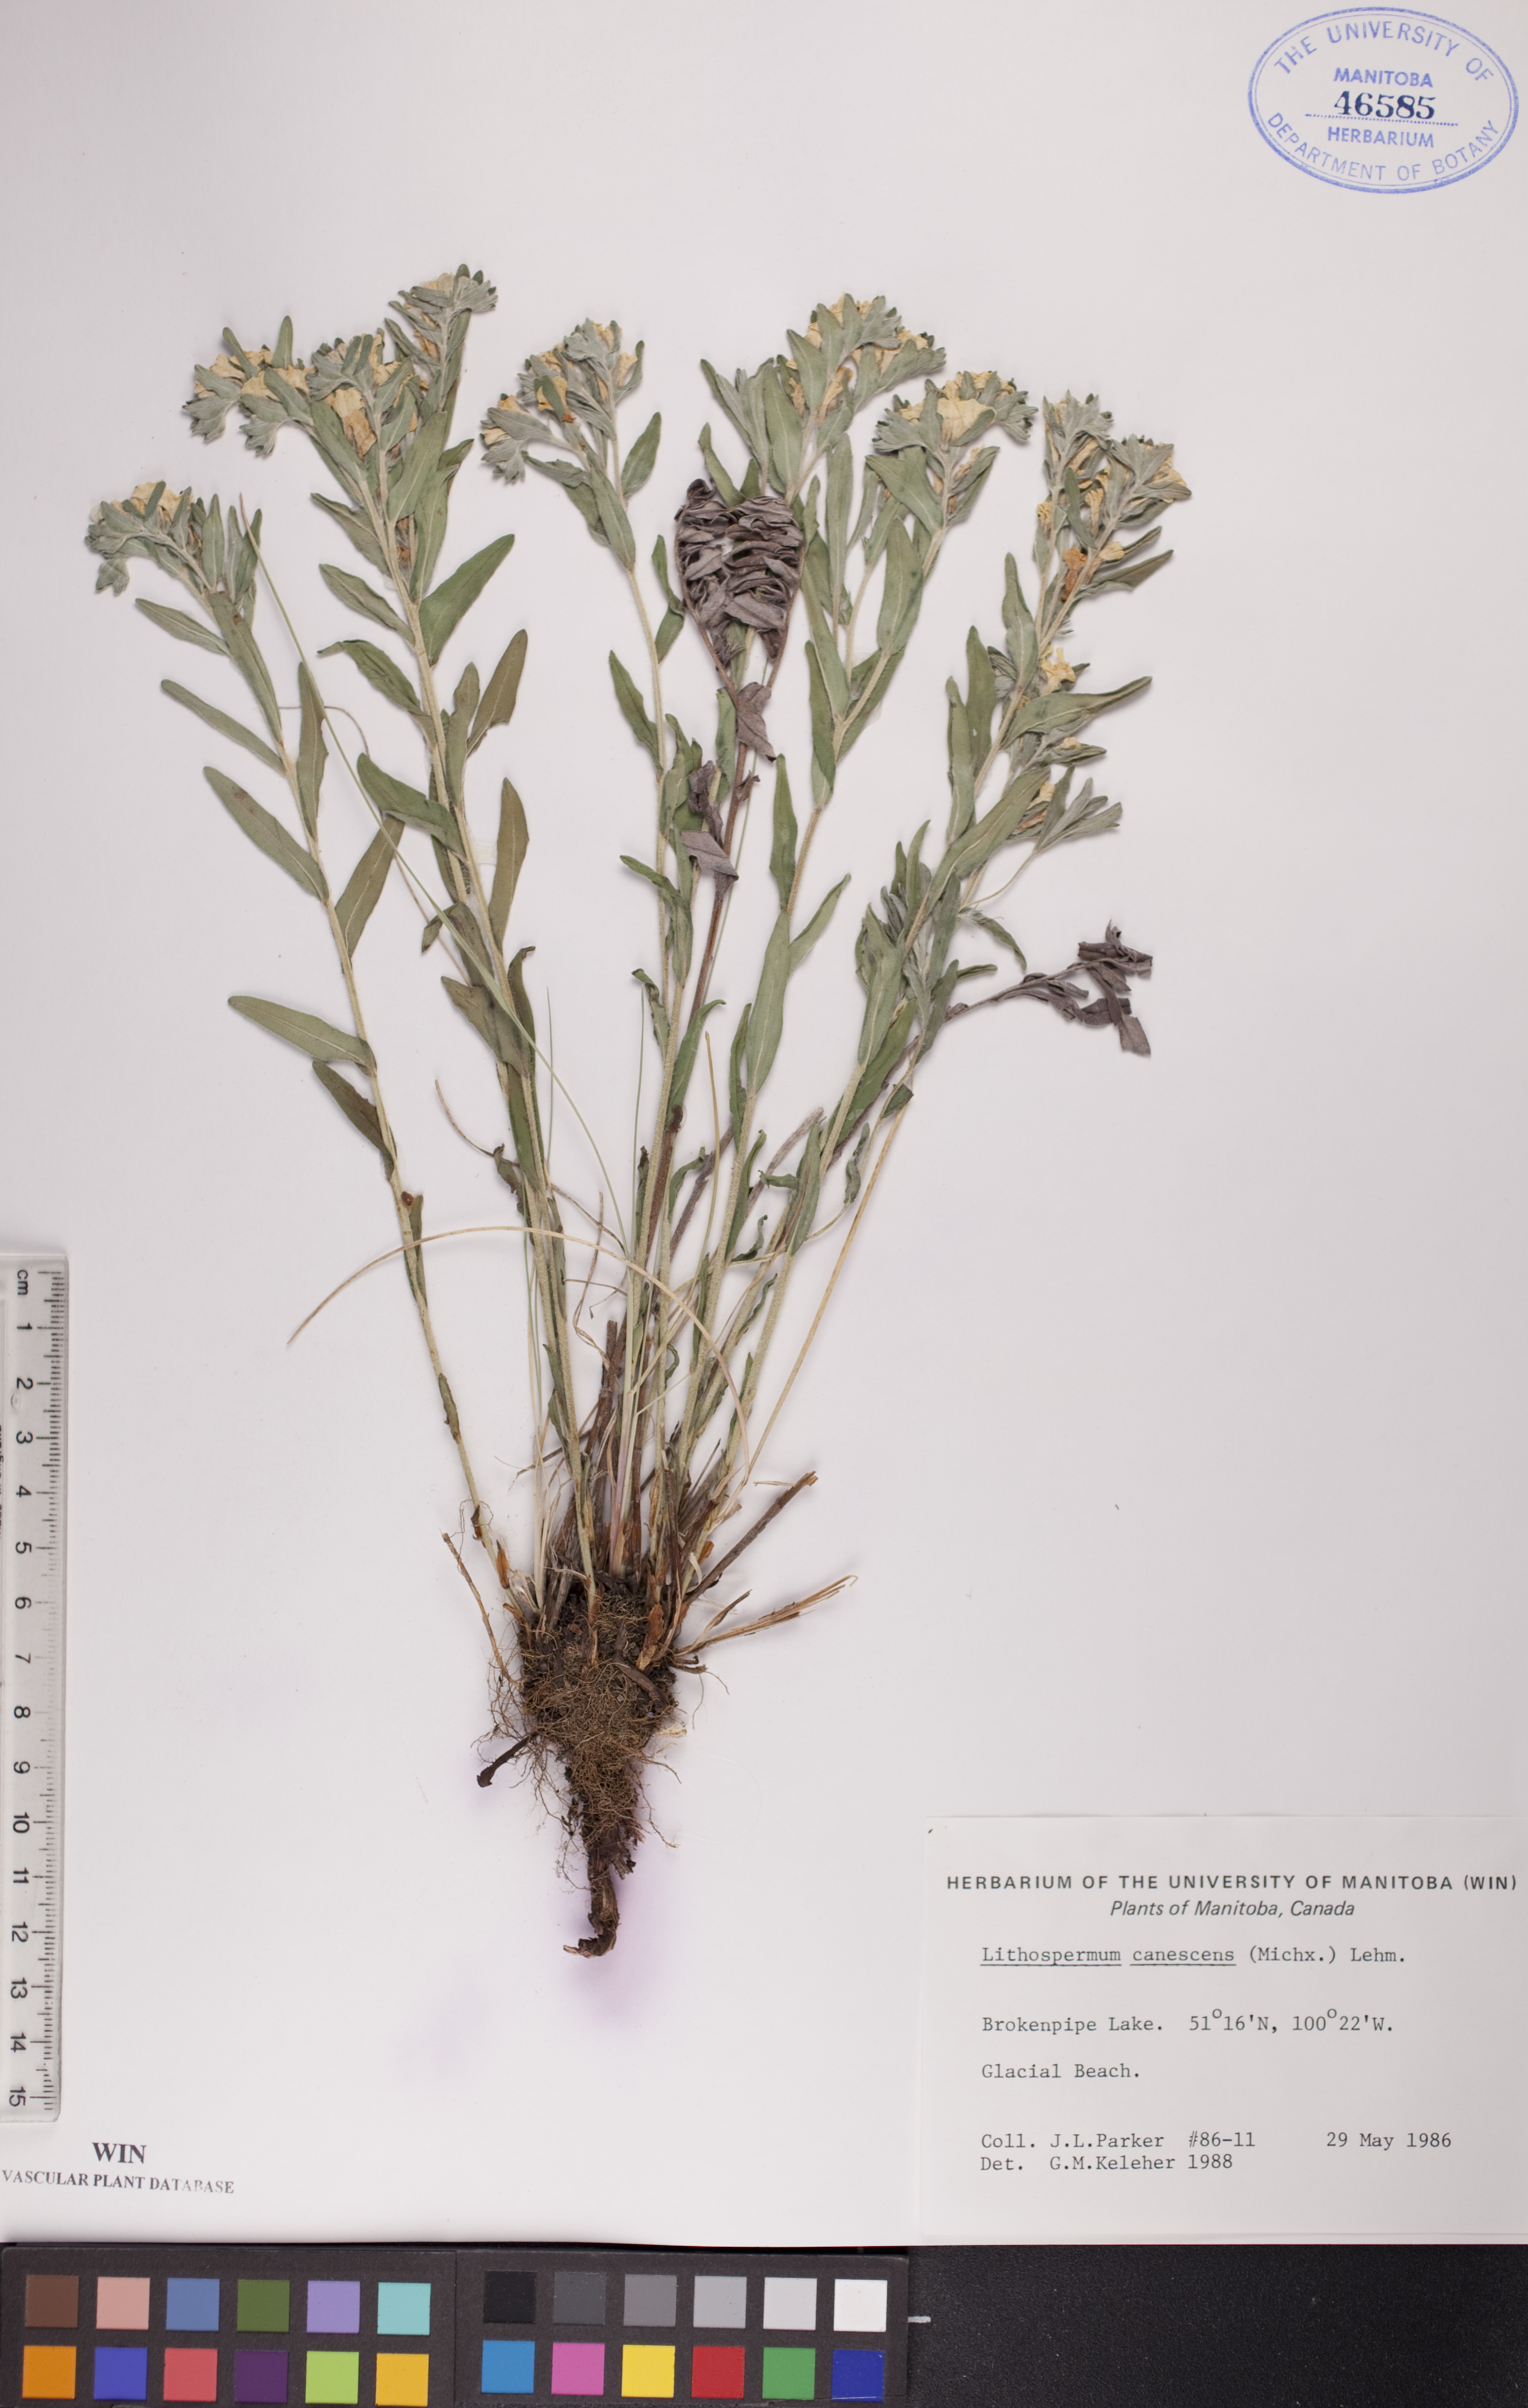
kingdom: Plantae
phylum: Tracheophyta
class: Magnoliopsida
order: Boraginales
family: Boraginaceae
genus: Lithospermum
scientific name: Lithospermum canescens
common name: Hoary puccoon
